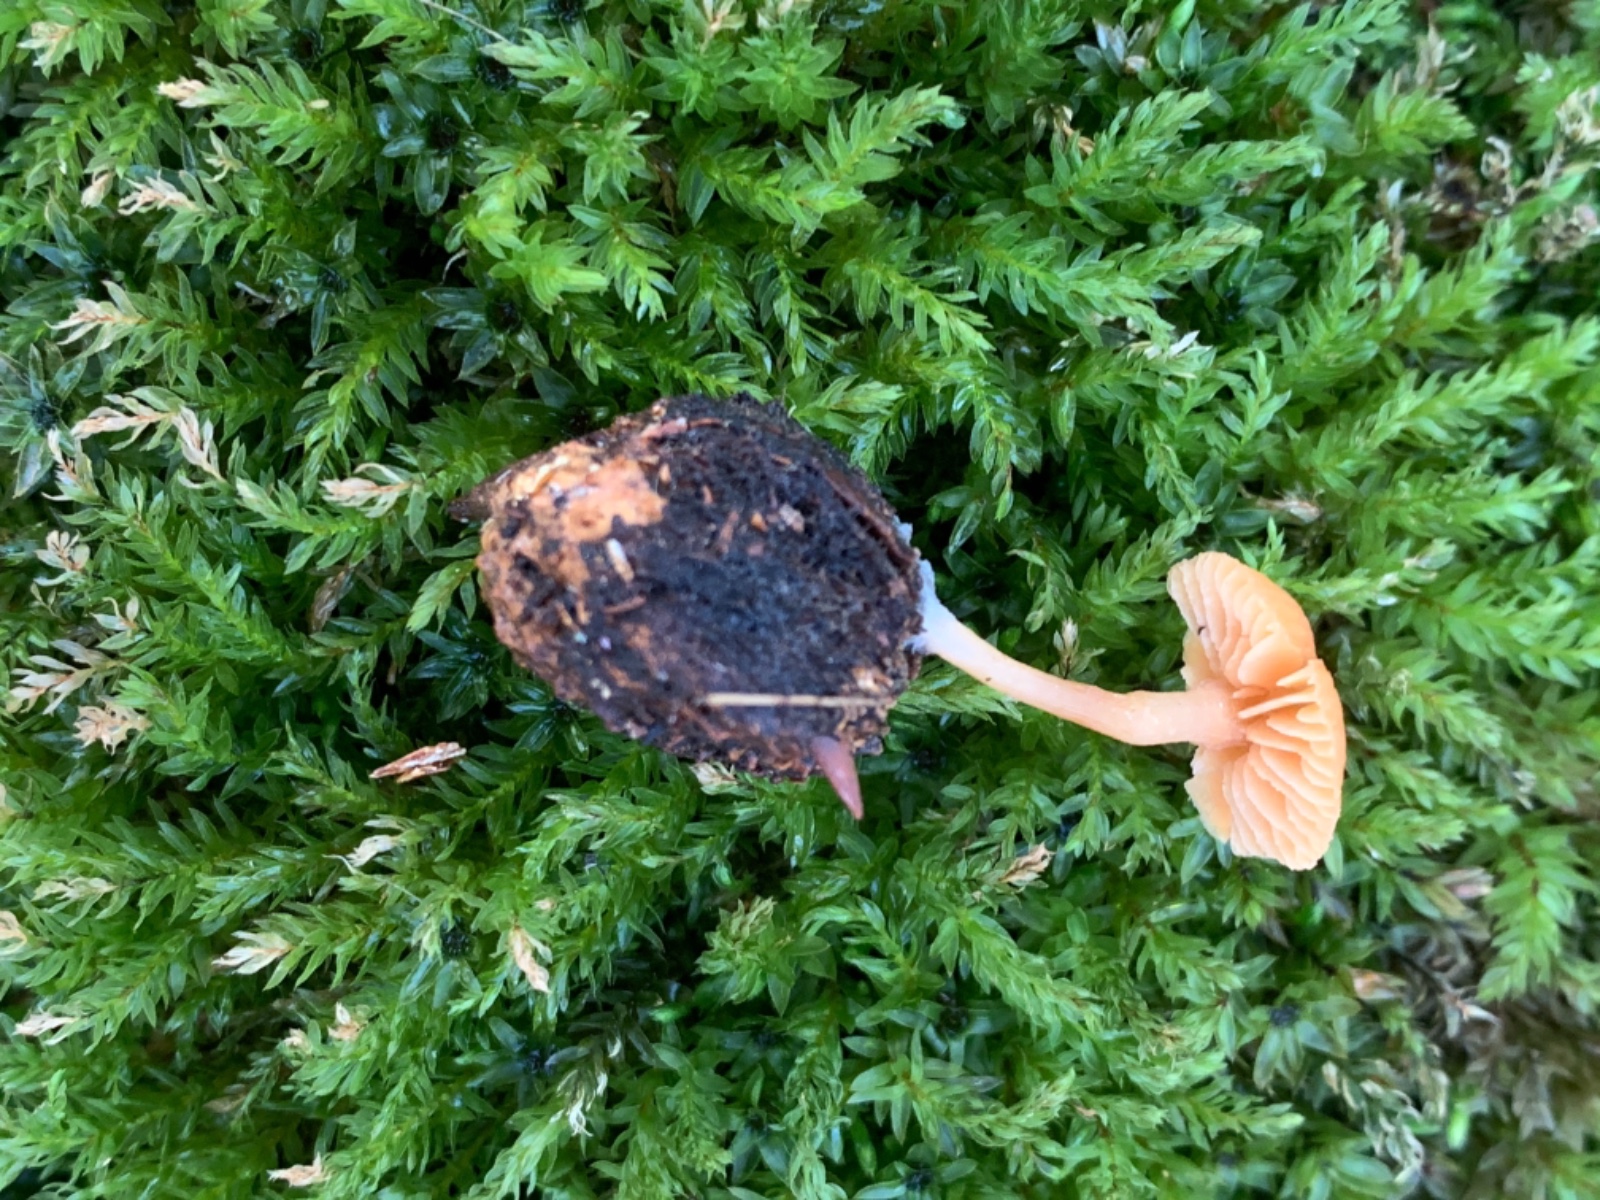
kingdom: Fungi
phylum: Basidiomycota
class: Agaricomycetes
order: Agaricales
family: Tubariaceae
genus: Tubaria
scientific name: Tubaria furfuracea
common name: kliddet fnughat
